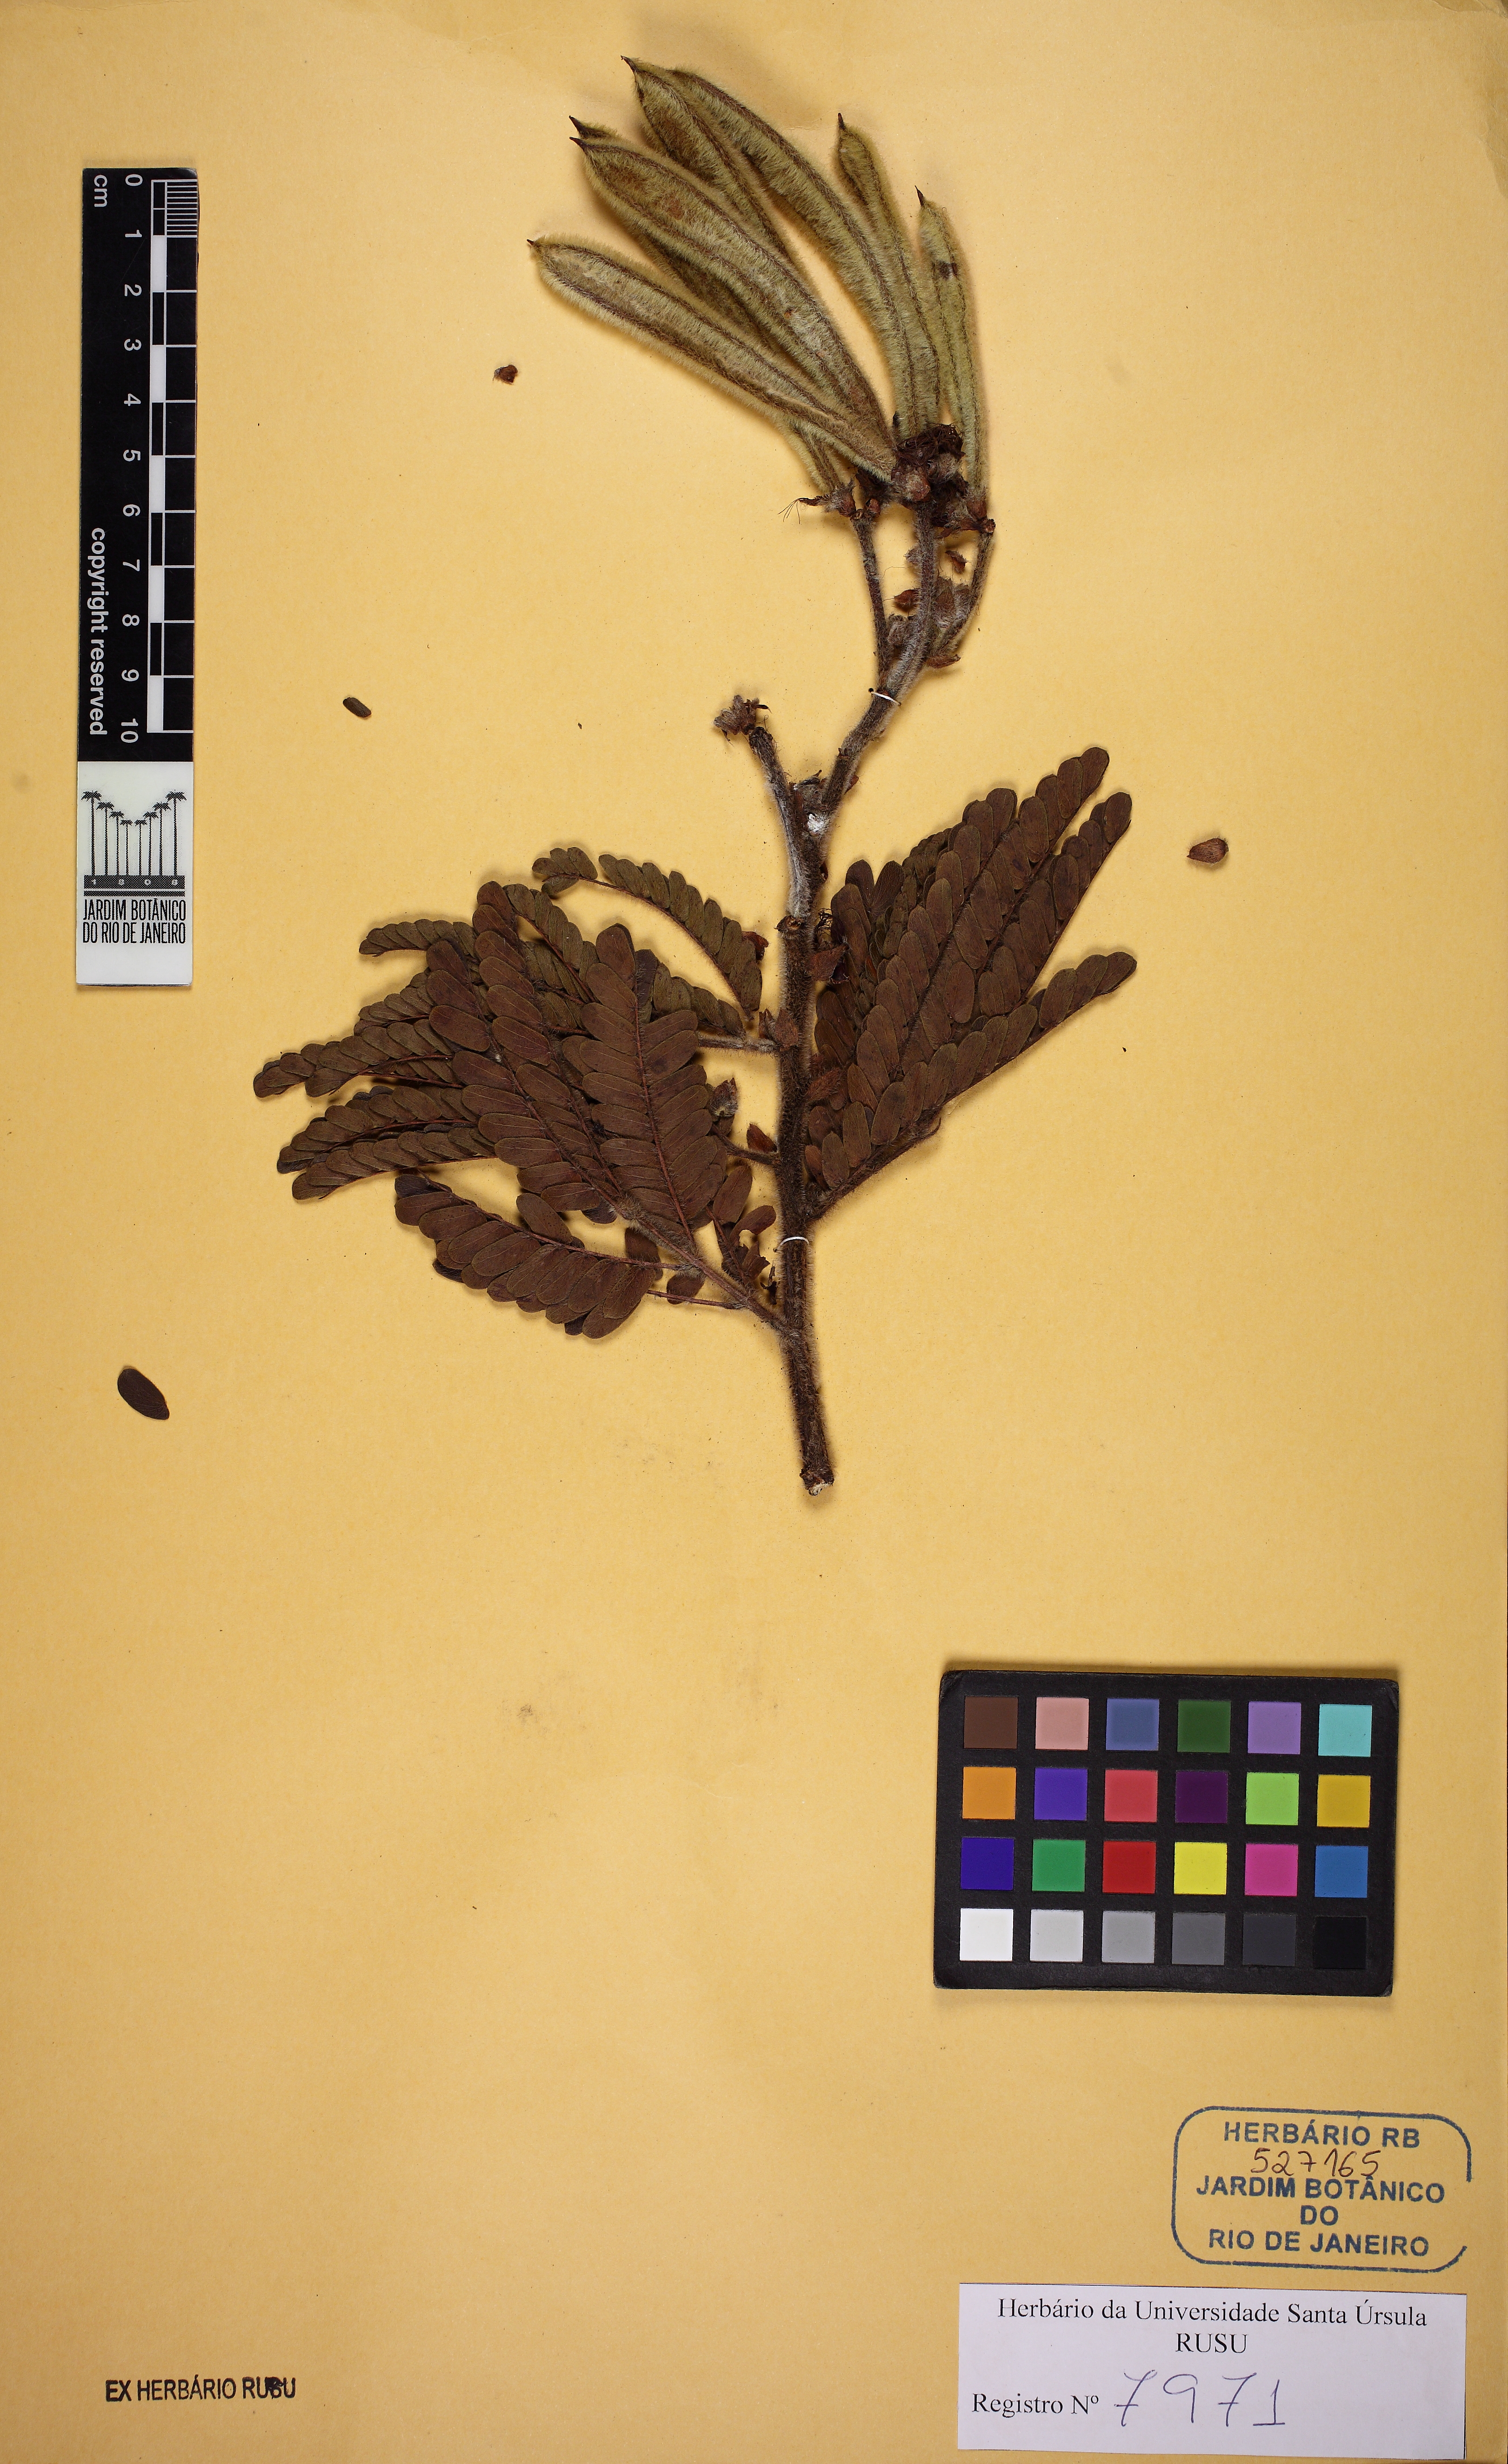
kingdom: Plantae
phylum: Tracheophyta
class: Magnoliopsida
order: Fabales
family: Fabaceae
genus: Calliandra
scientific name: Calliandra dysantha
